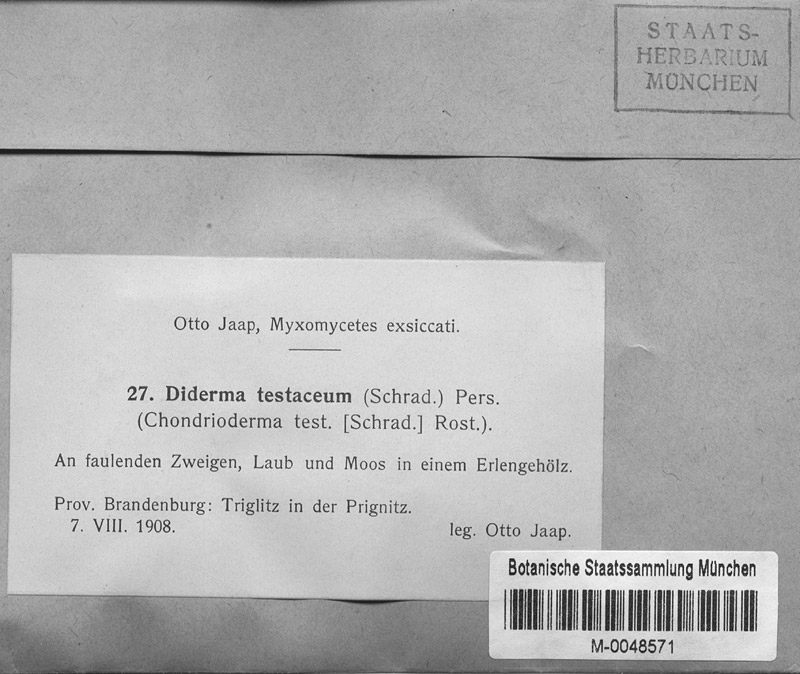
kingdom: Protozoa
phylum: Mycetozoa
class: Myxomycetes
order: Physarales
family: Didymiaceae
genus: Diderma
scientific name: Diderma testaceum
